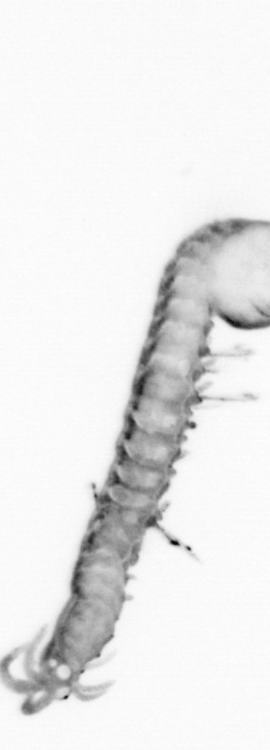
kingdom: Animalia
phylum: Annelida
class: Polychaeta
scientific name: Polychaeta
